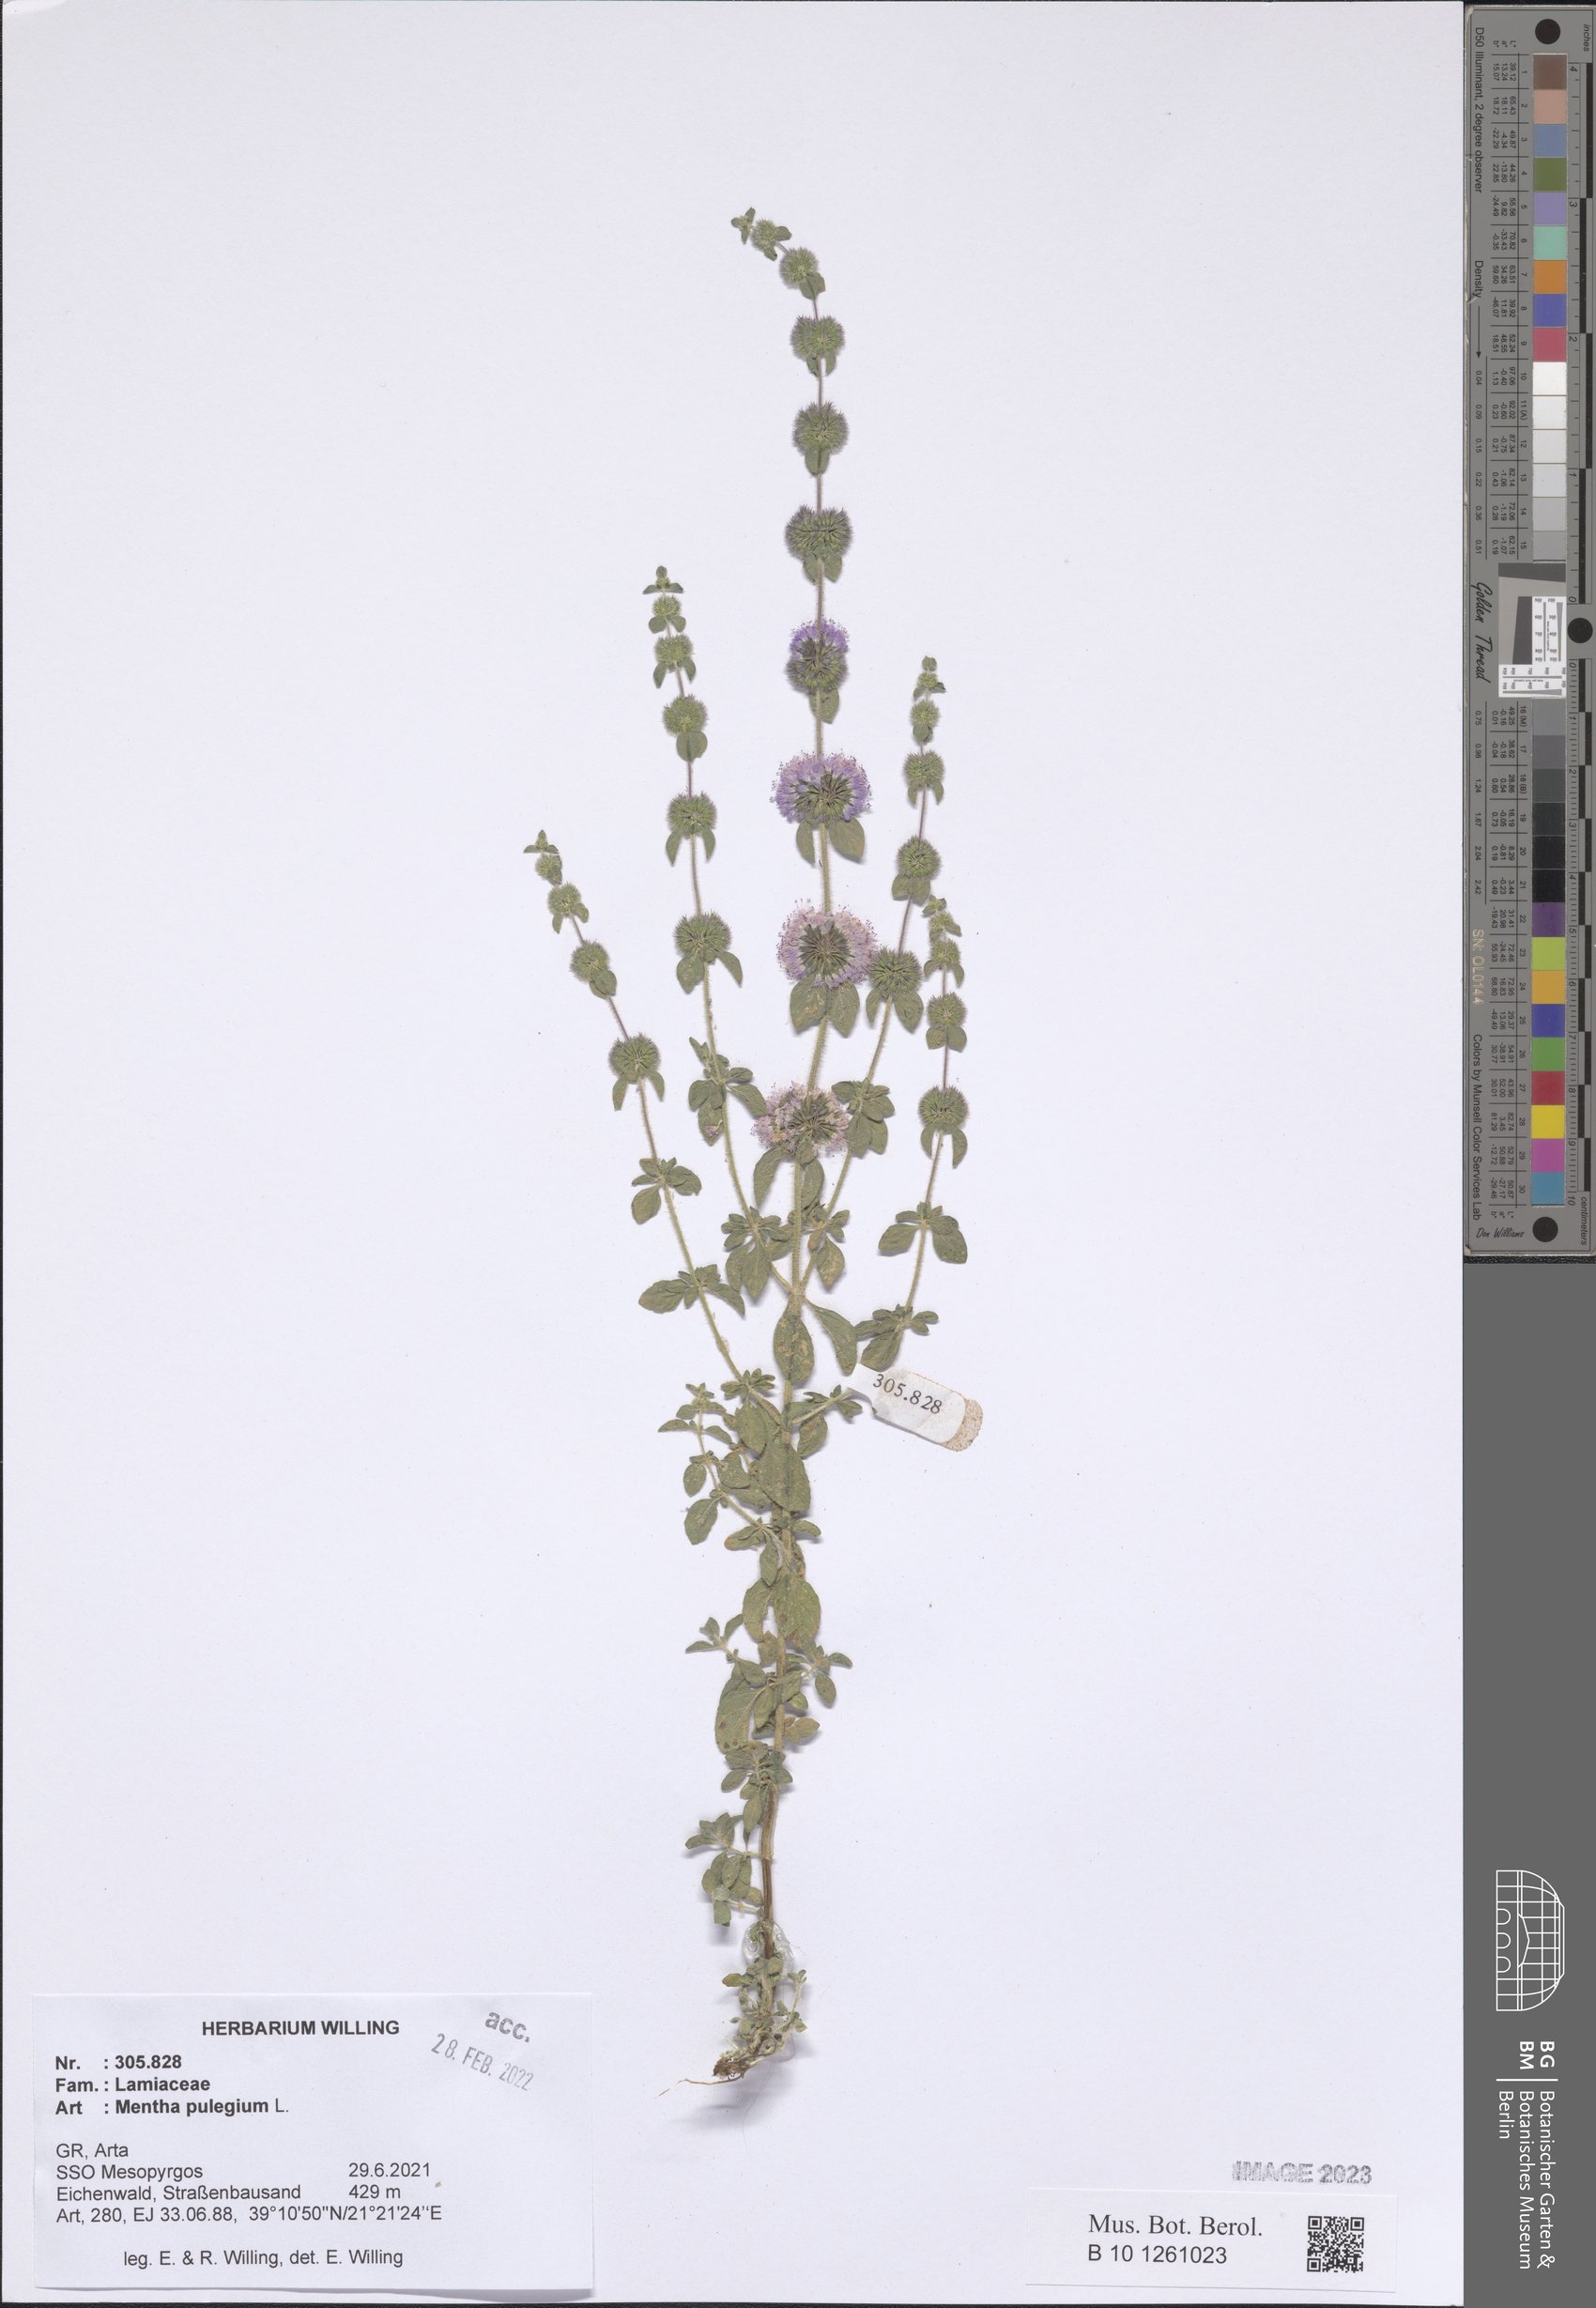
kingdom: Plantae
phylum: Tracheophyta
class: Magnoliopsida
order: Lamiales
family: Lamiaceae
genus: Mentha
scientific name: Mentha pulegium
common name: Pennyroyal
